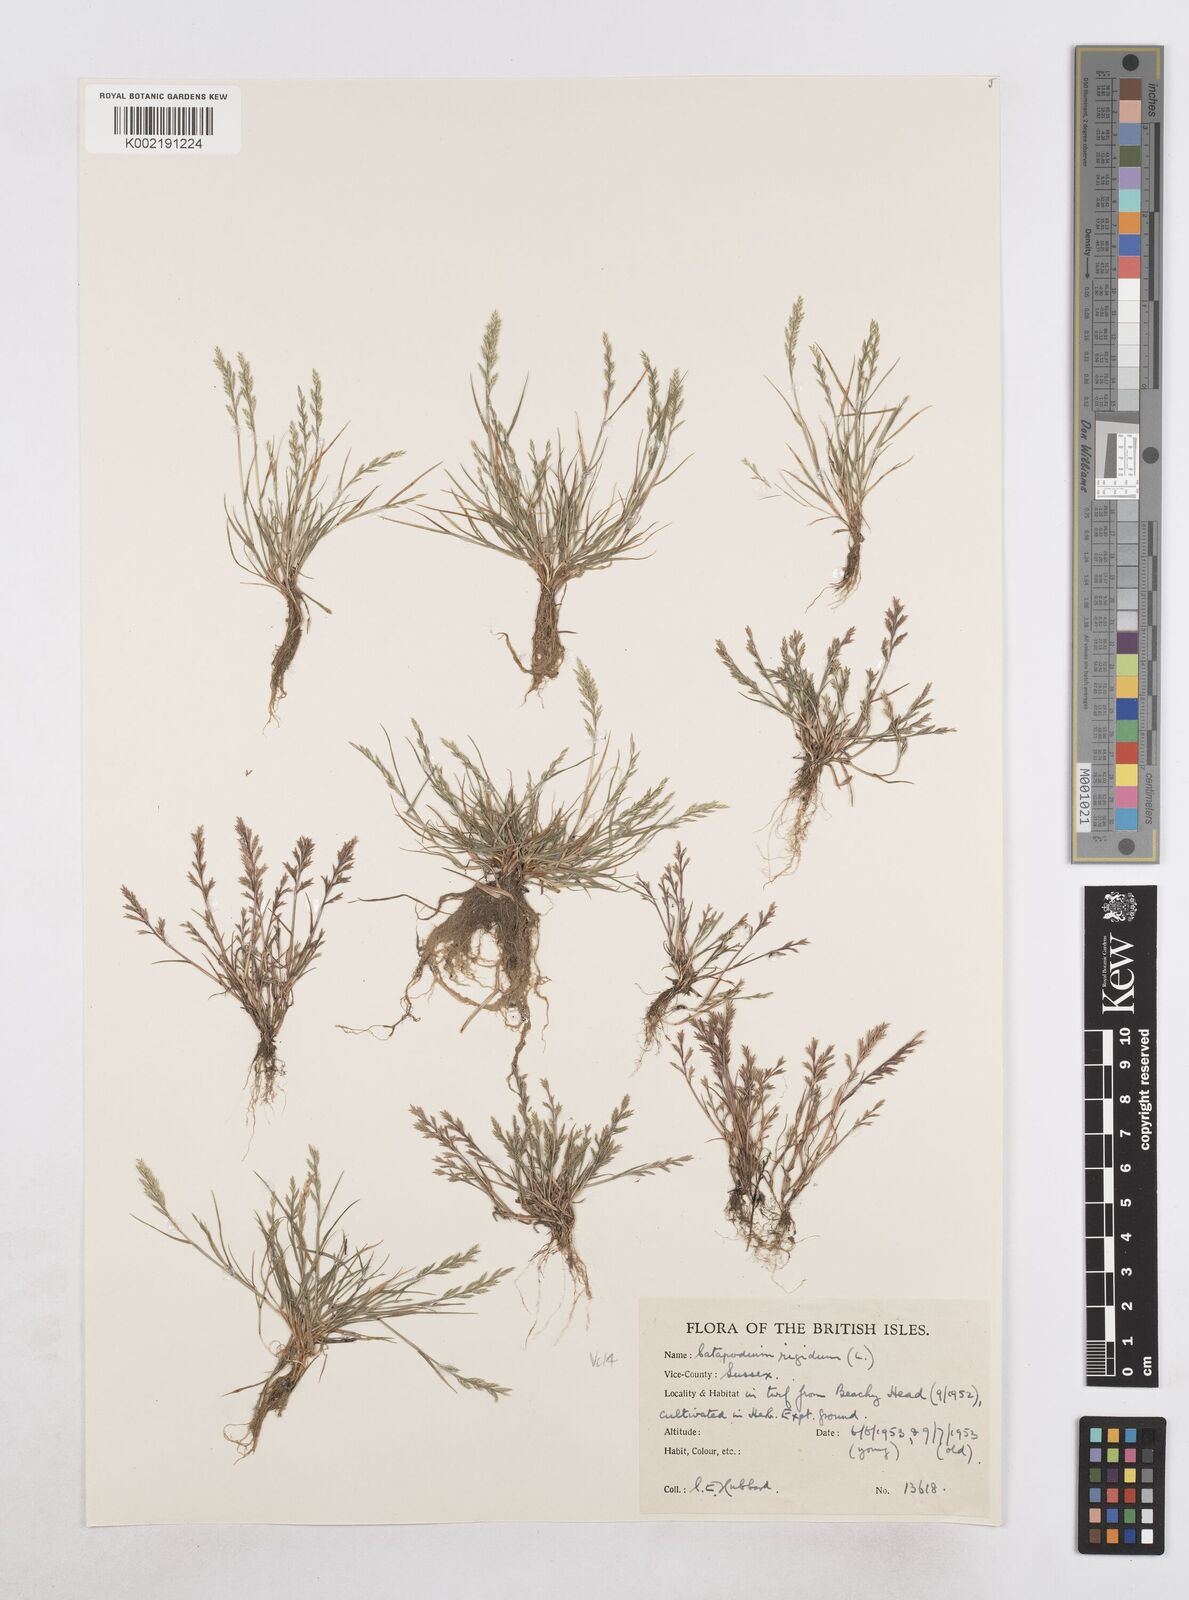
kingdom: Plantae
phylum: Tracheophyta
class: Liliopsida
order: Poales
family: Poaceae
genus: Catapodium
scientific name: Catapodium rigidum
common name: Fern-grass
